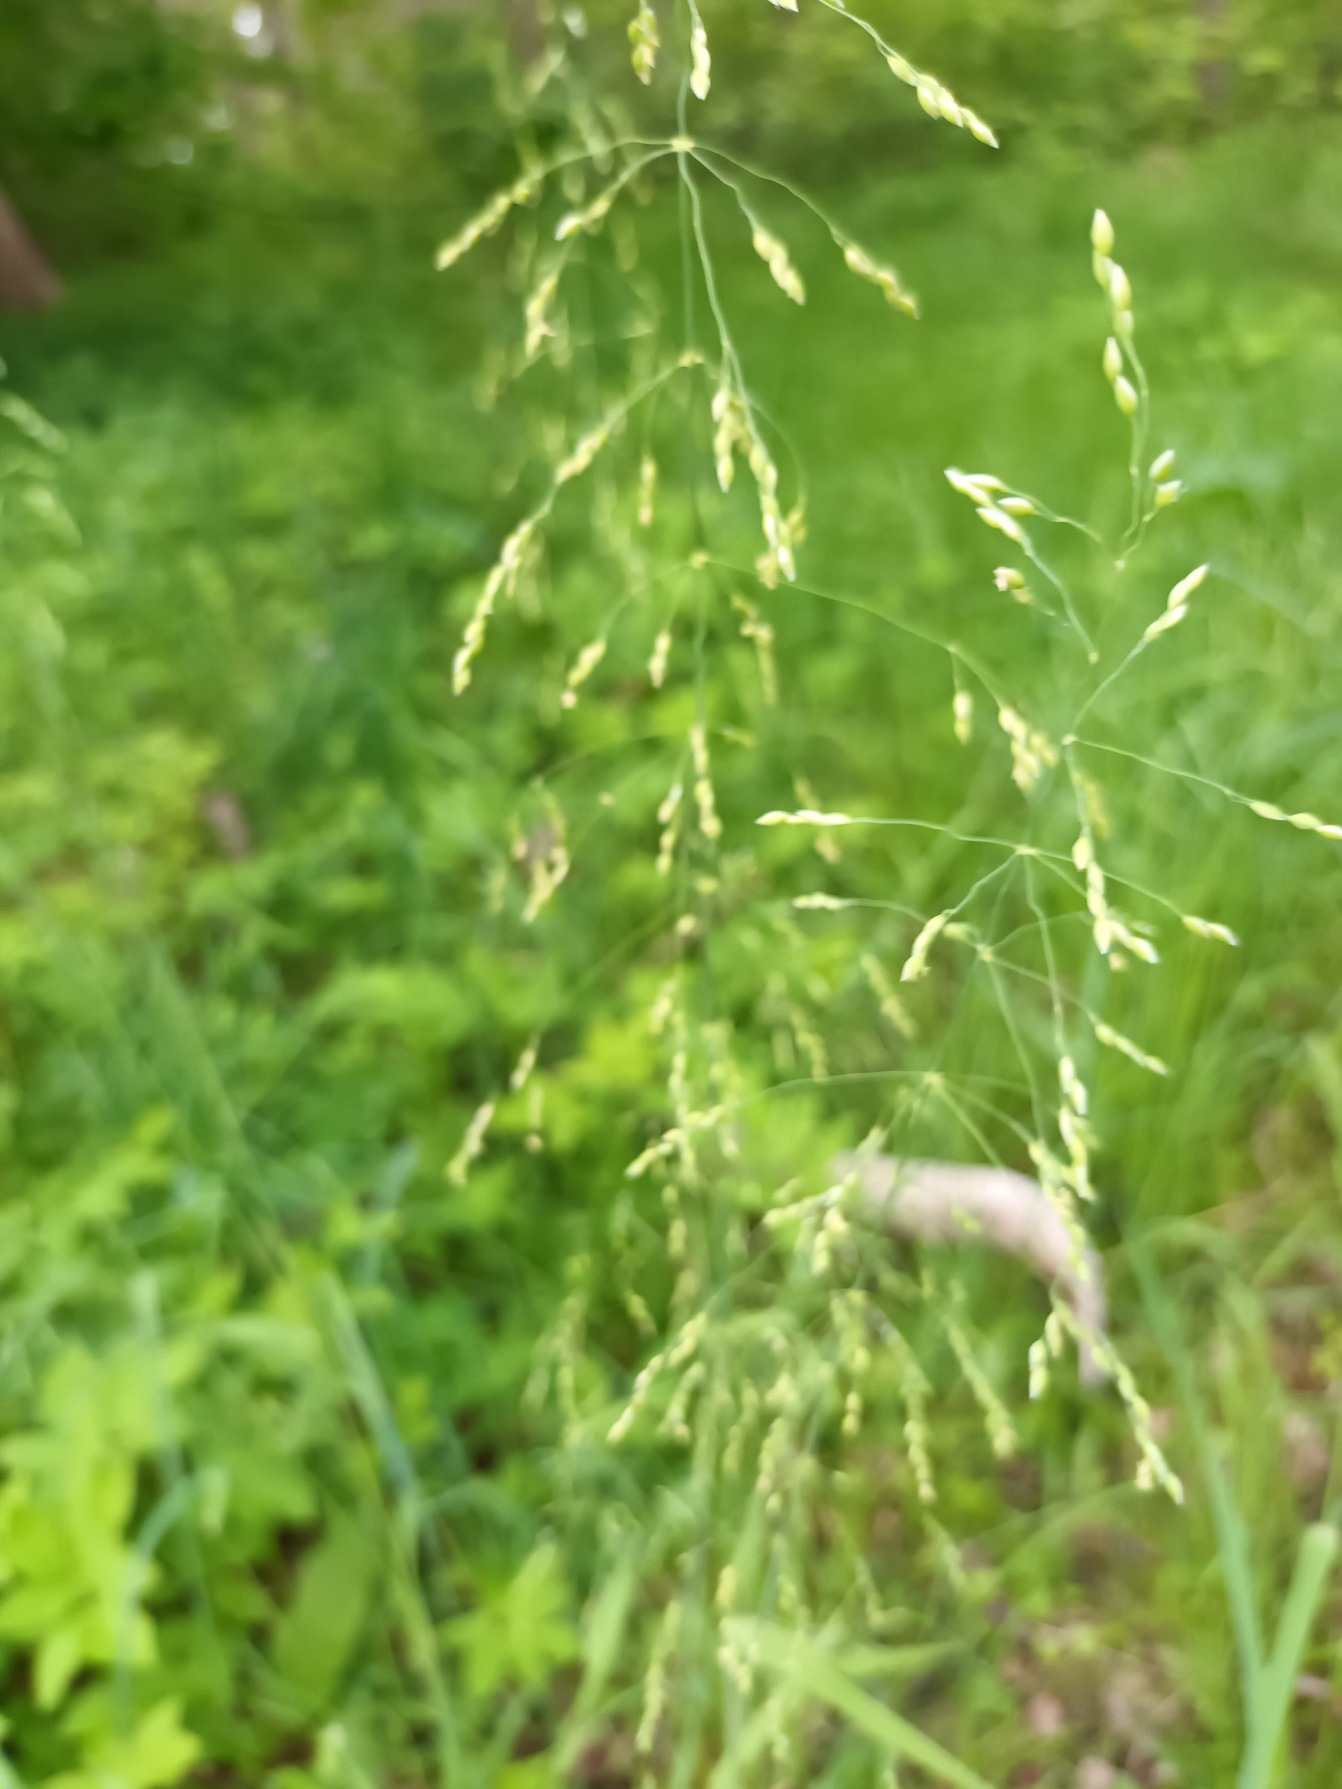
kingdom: Plantae
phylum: Tracheophyta
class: Liliopsida
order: Poales
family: Poaceae
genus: Milium
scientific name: Milium effusum
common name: Miliegræs
